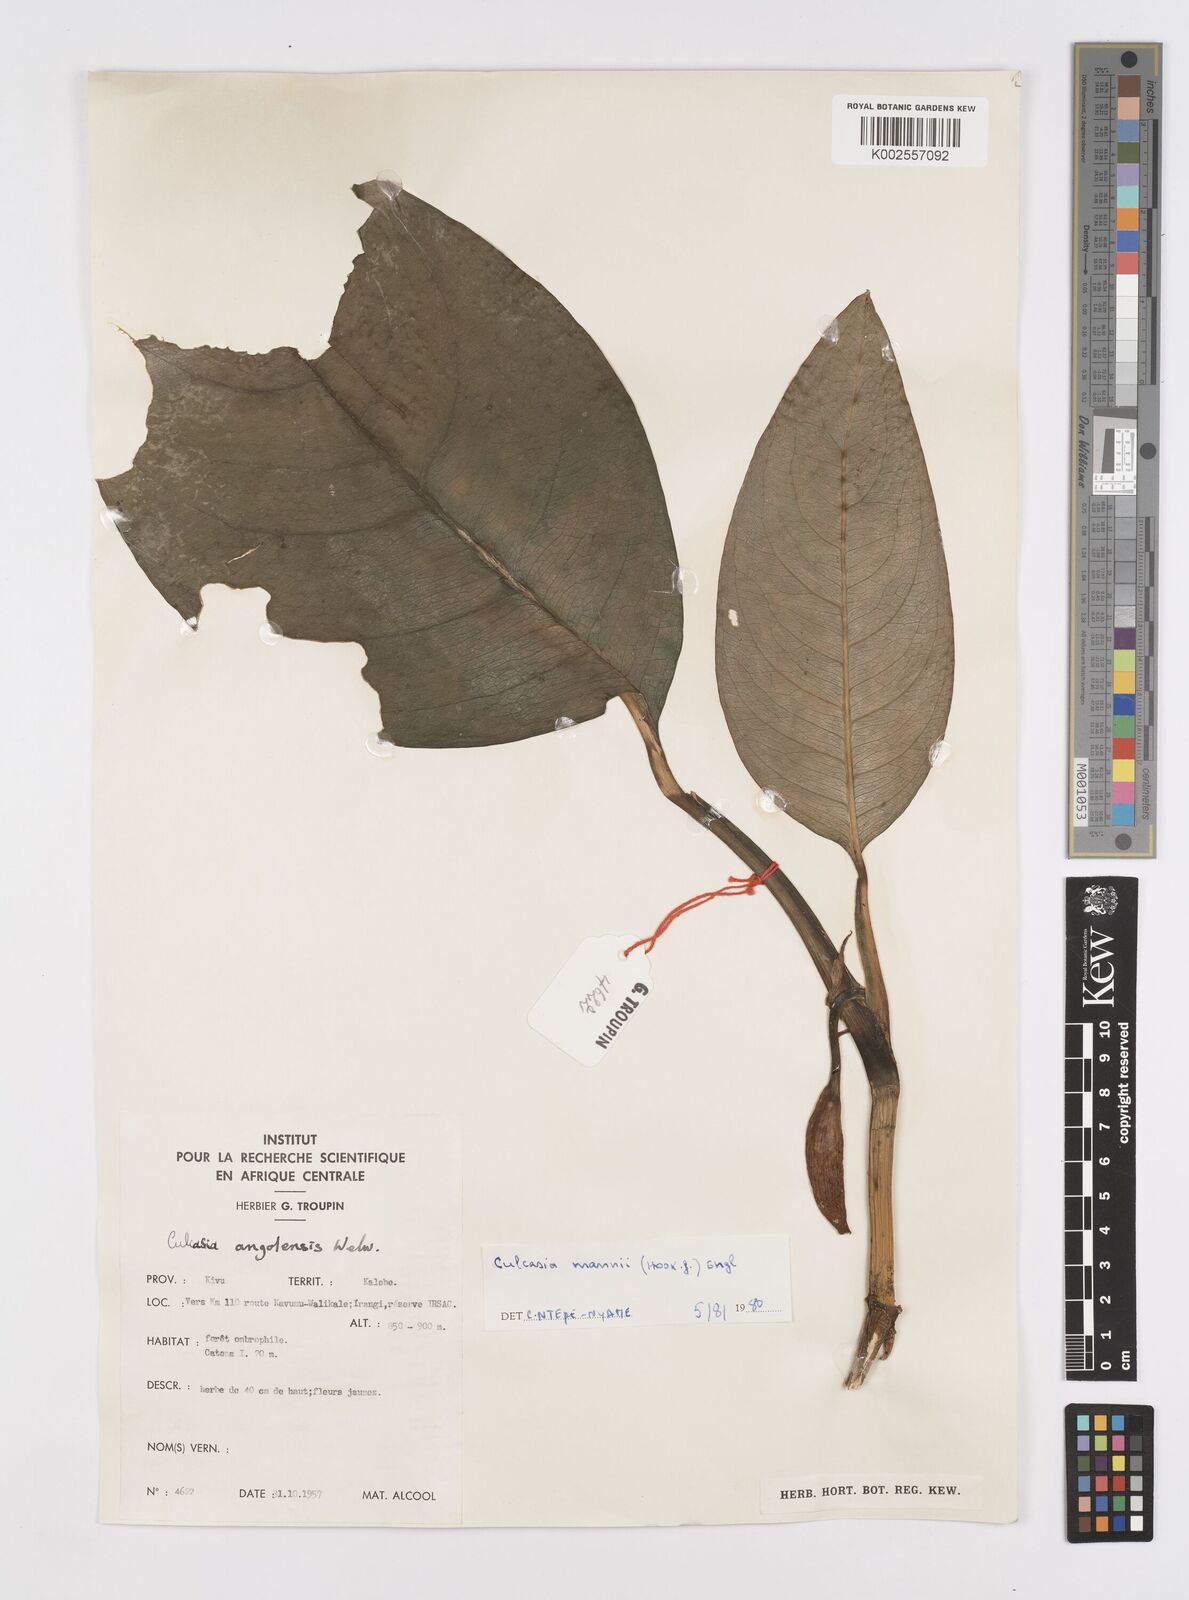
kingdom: Plantae
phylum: Tracheophyta
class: Liliopsida
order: Alismatales
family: Araceae
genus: Culcasia
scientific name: Culcasia mannii
